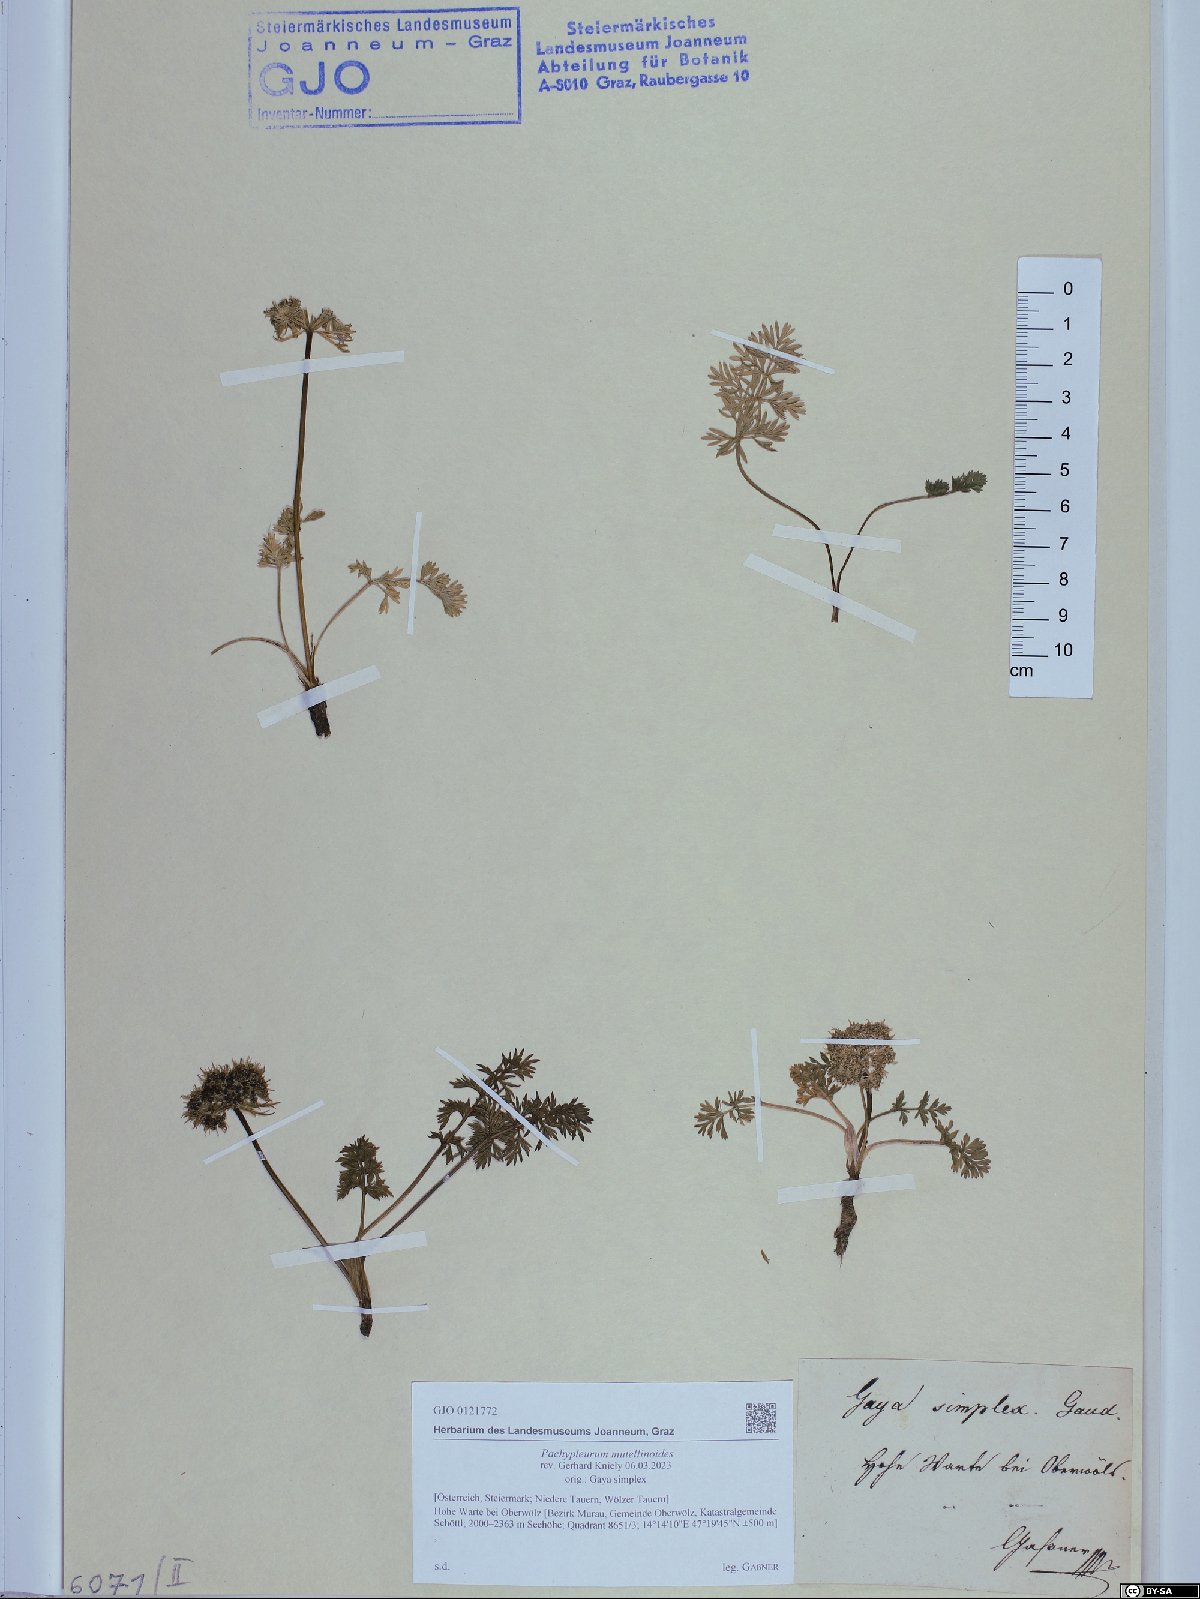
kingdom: Plantae
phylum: Tracheophyta
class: Magnoliopsida
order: Apiales
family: Apiaceae
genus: Pachypleurum
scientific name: Pachypleurum mutellinoides
